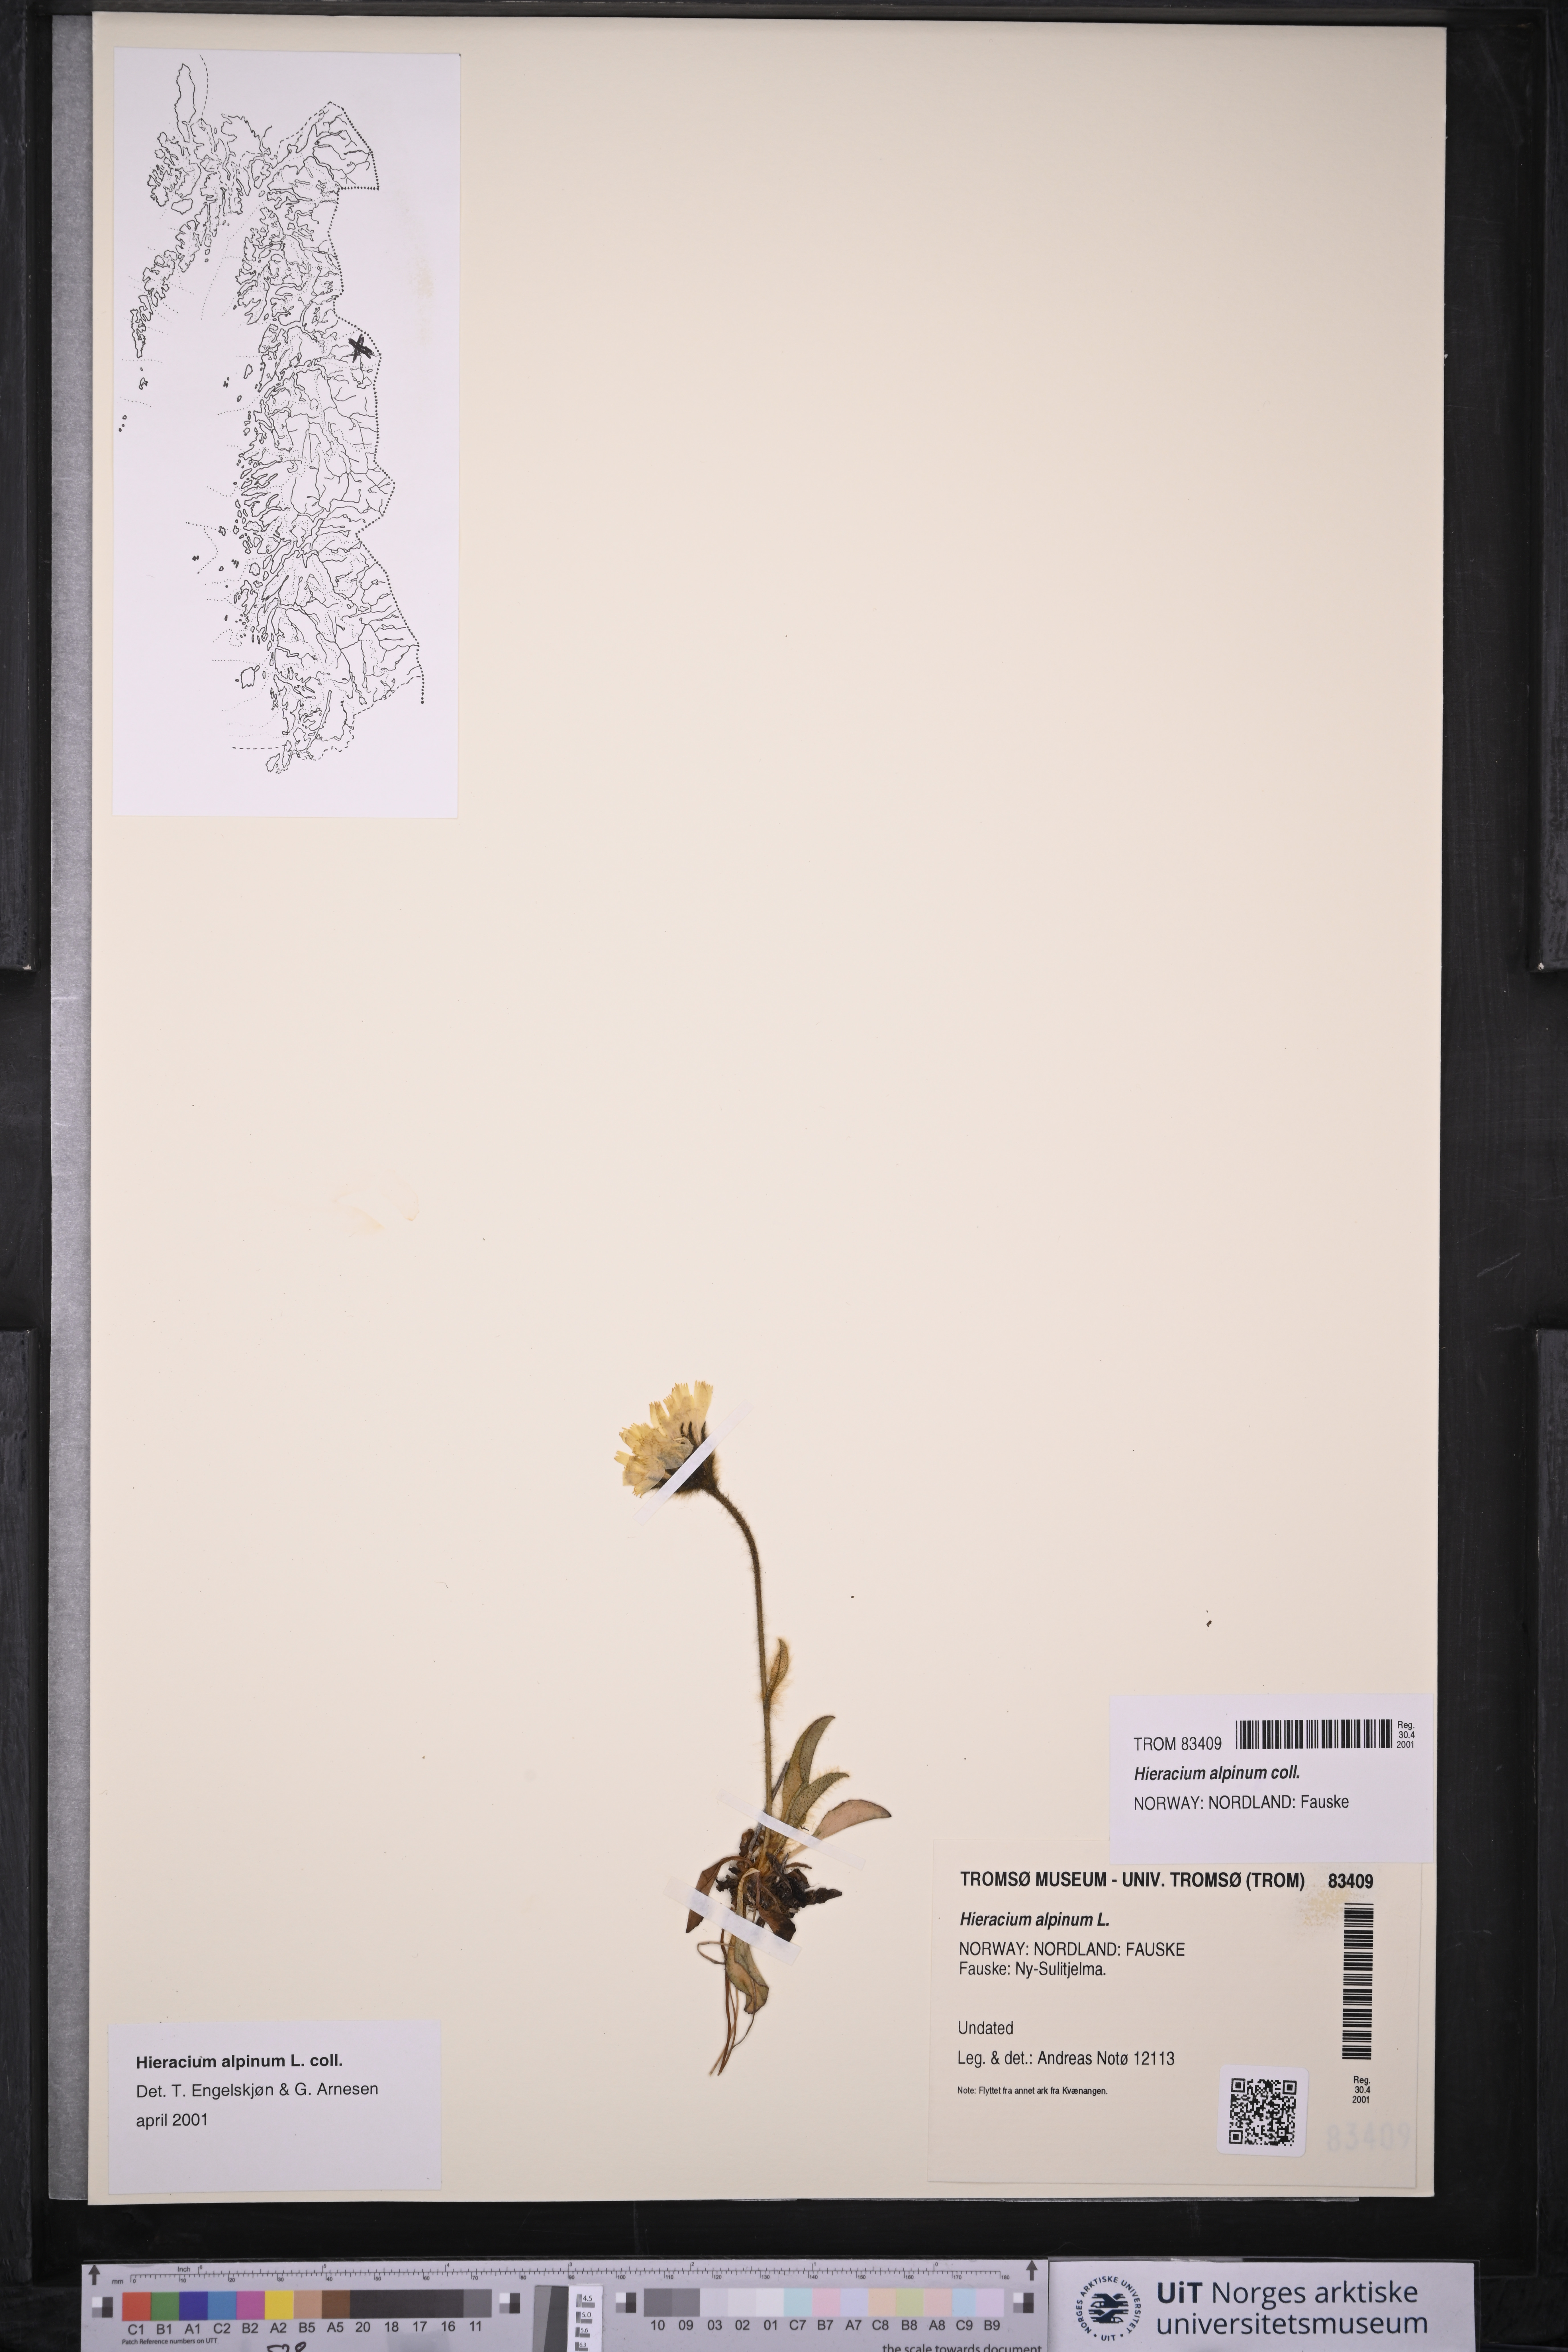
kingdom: Plantae
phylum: Tracheophyta
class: Magnoliopsida
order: Asterales
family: Asteraceae
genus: Hieracium
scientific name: Hieracium alpinum
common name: Alpine hawkweed
